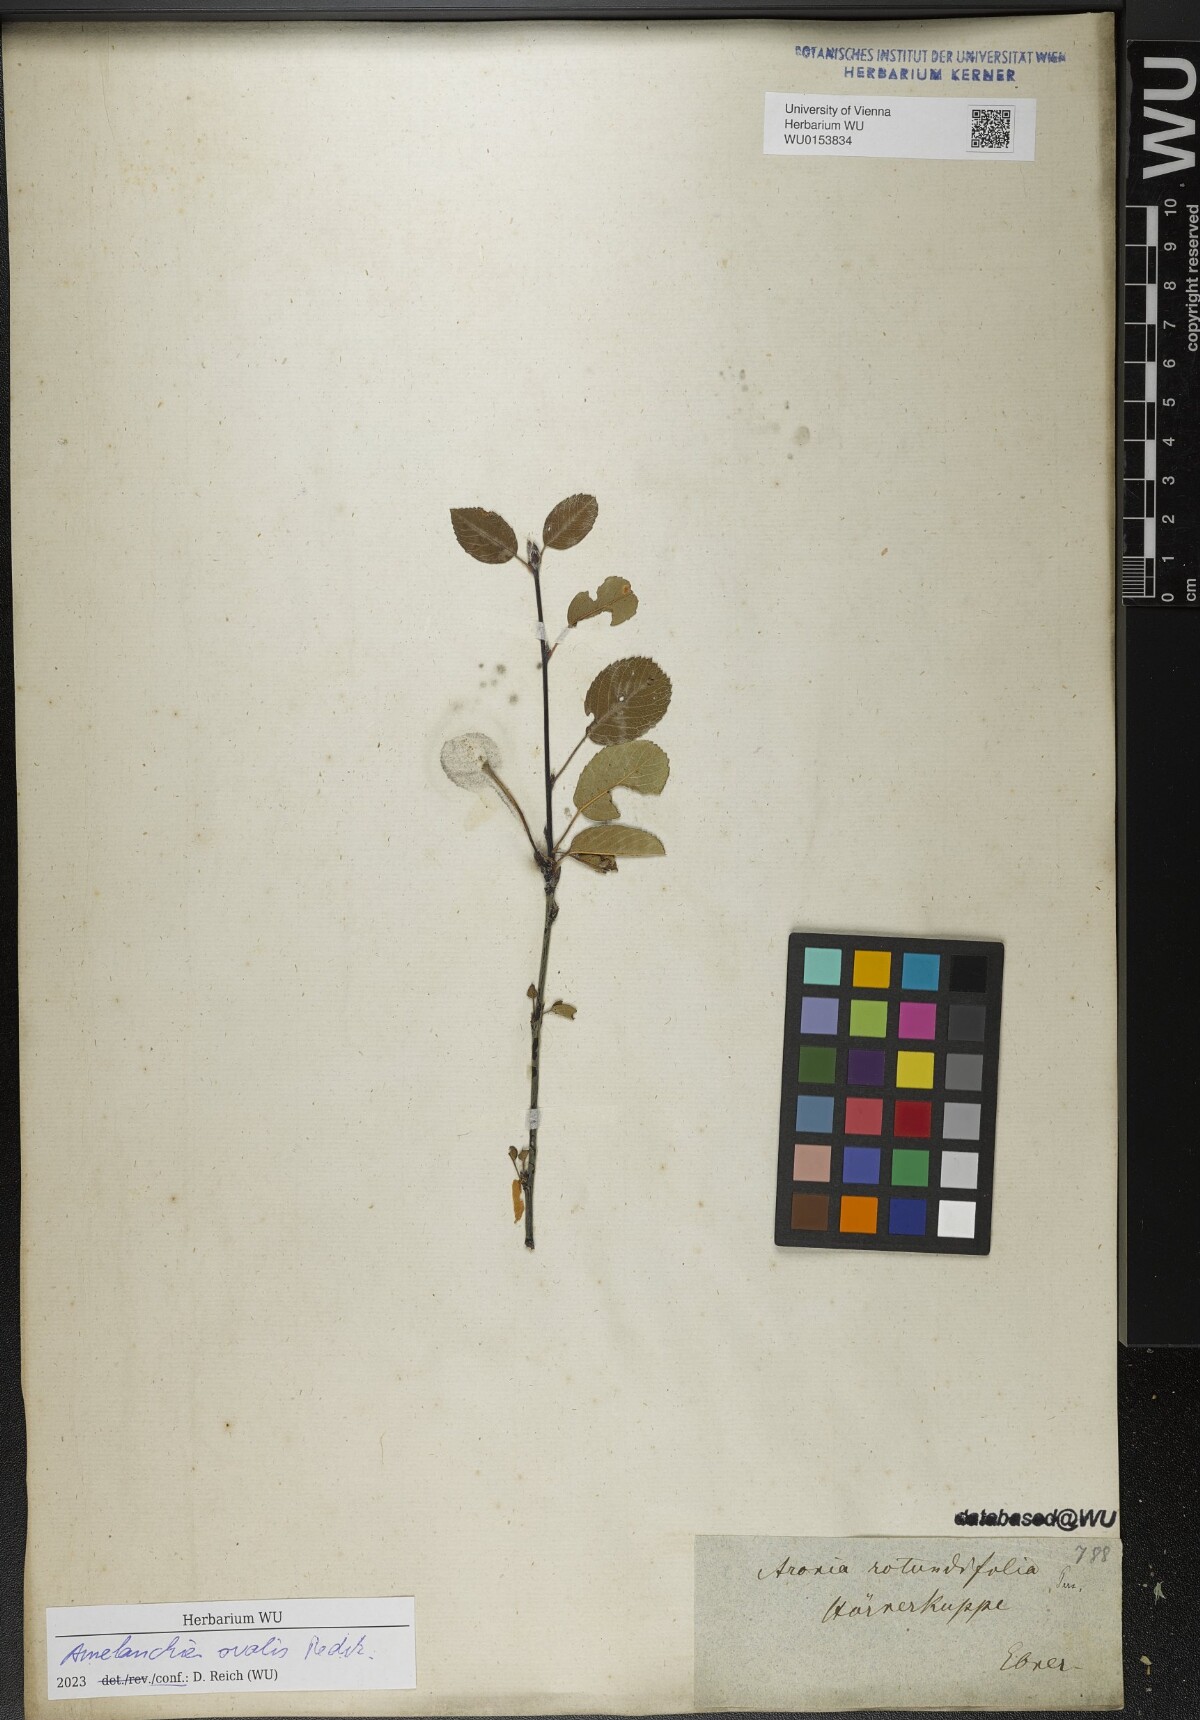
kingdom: Plantae
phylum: Tracheophyta
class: Magnoliopsida
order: Rosales
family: Rosaceae
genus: Amelanchier
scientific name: Amelanchier ovalis
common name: Serviceberry
